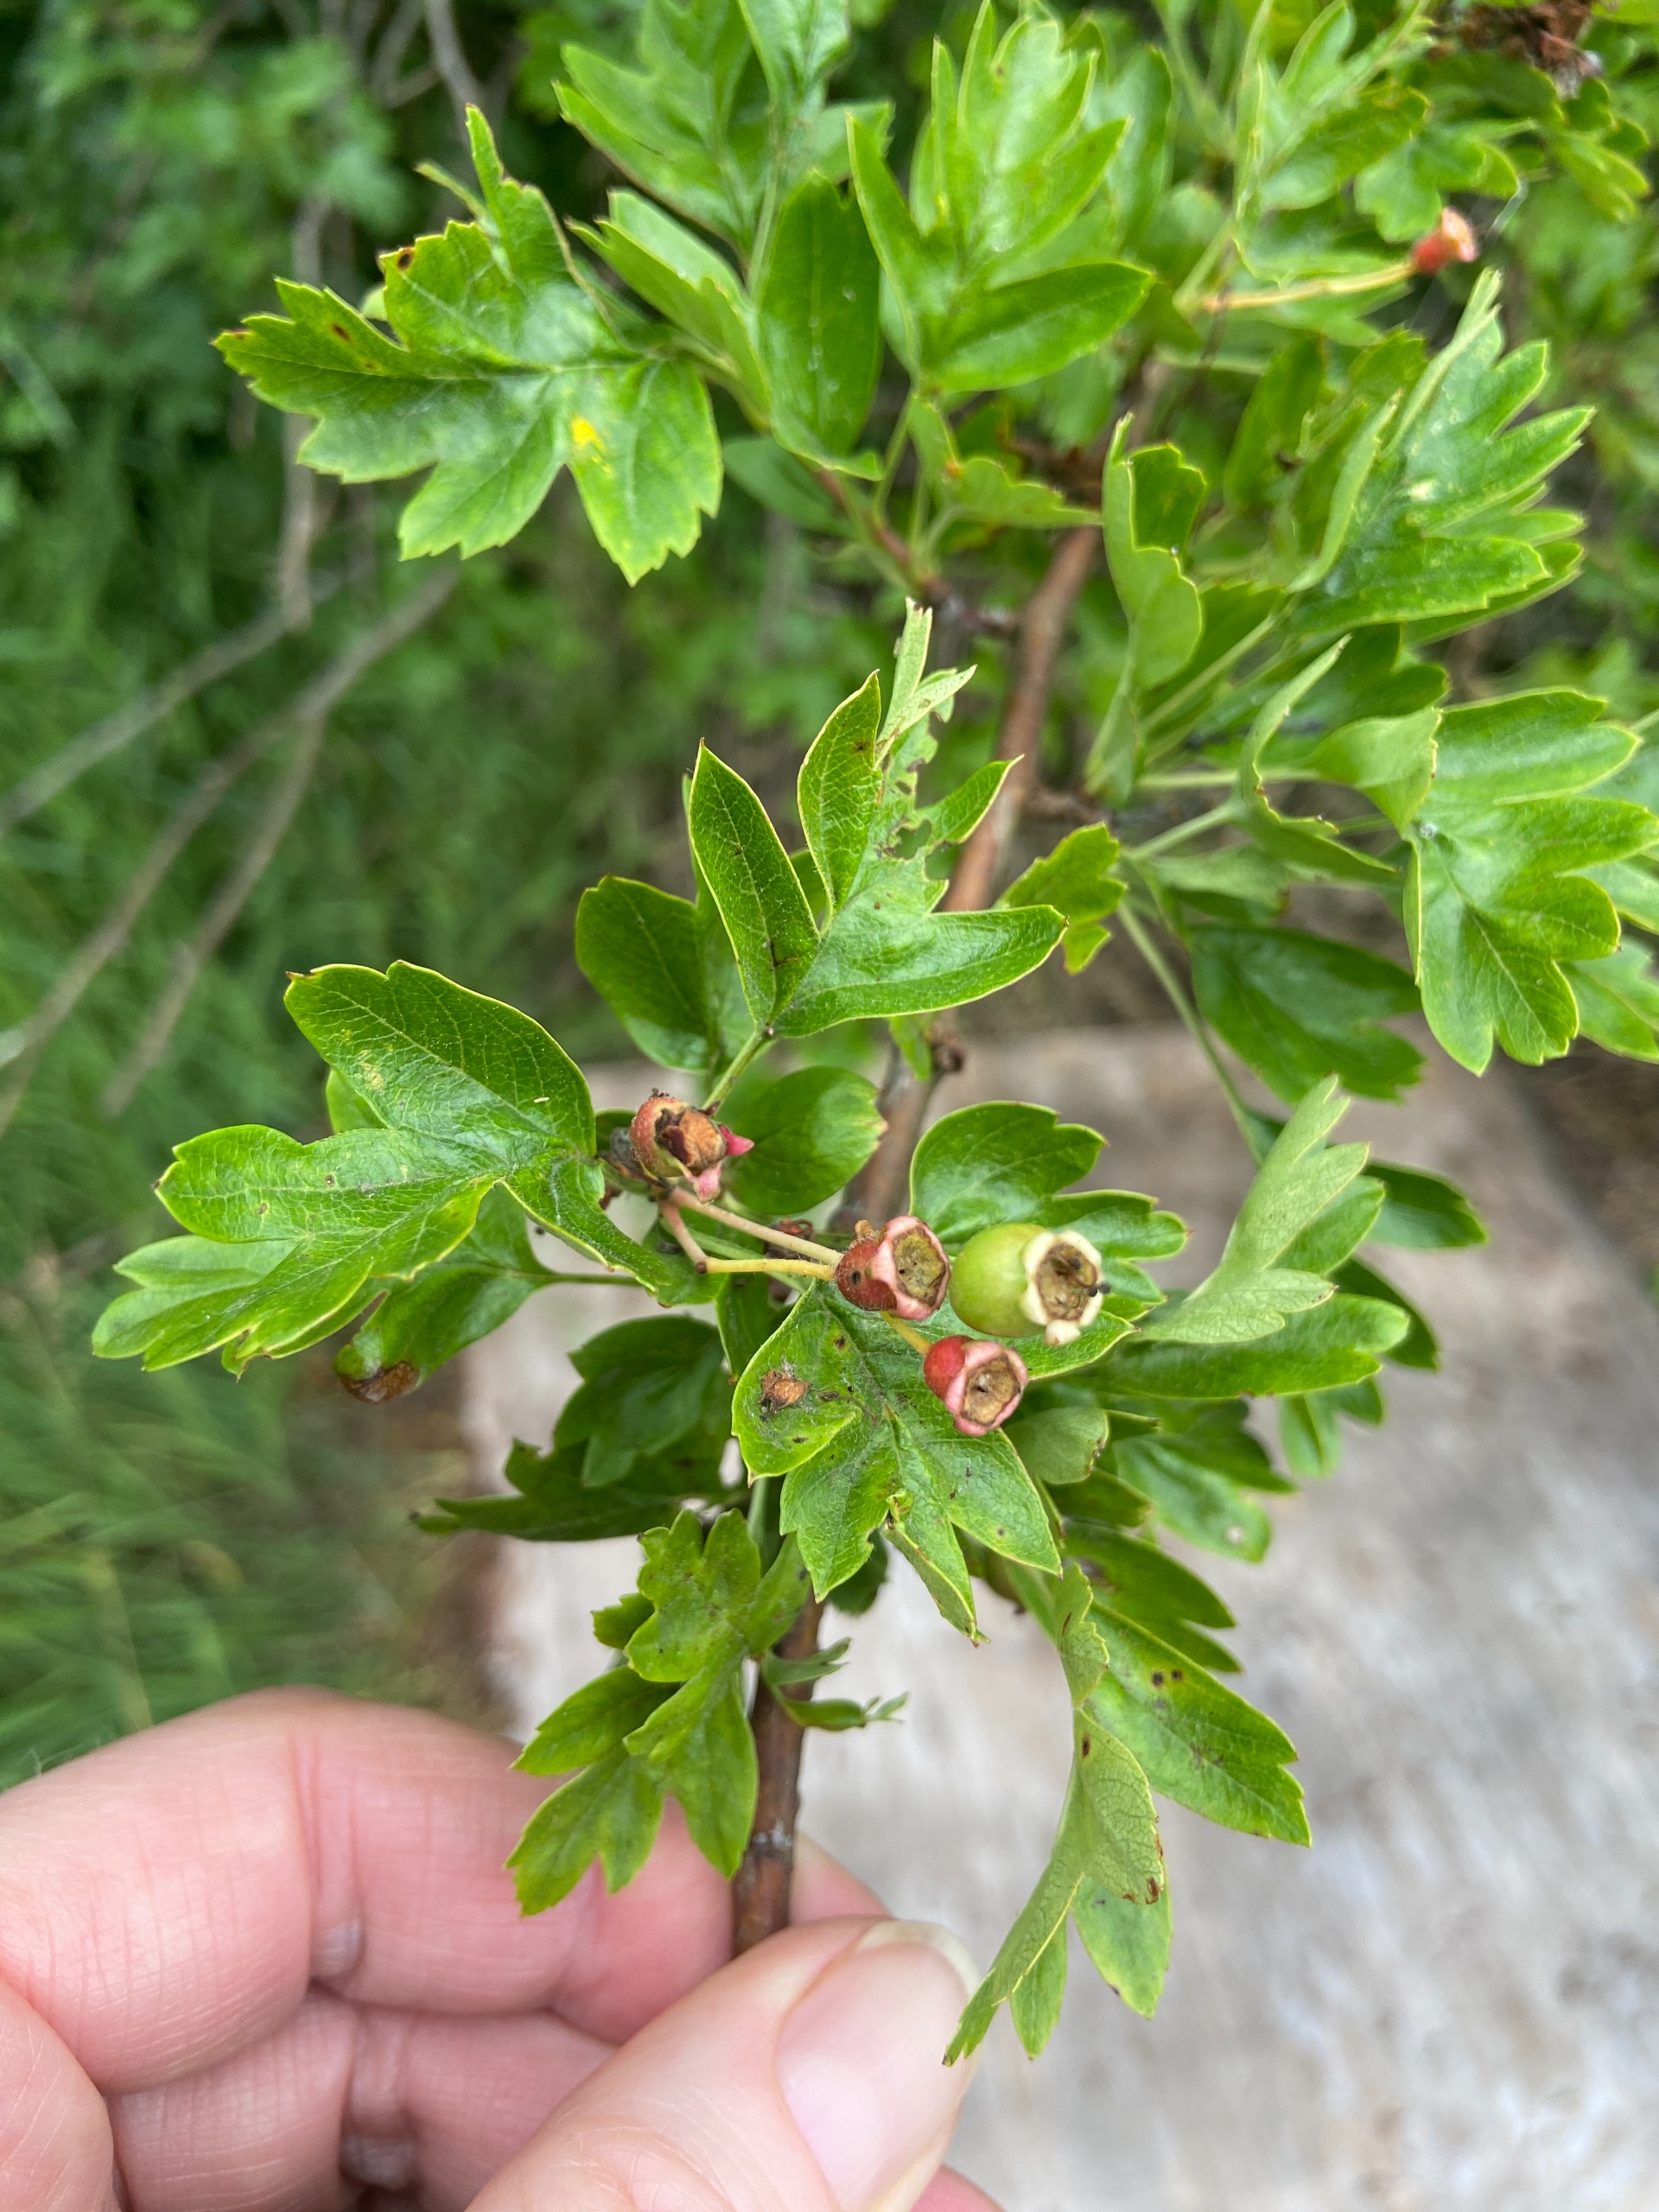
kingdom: Plantae
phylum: Tracheophyta
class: Magnoliopsida
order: Rosales
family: Rosaceae
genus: Crataegus
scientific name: Crataegus monogyna
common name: Engriflet hvidtjørn
